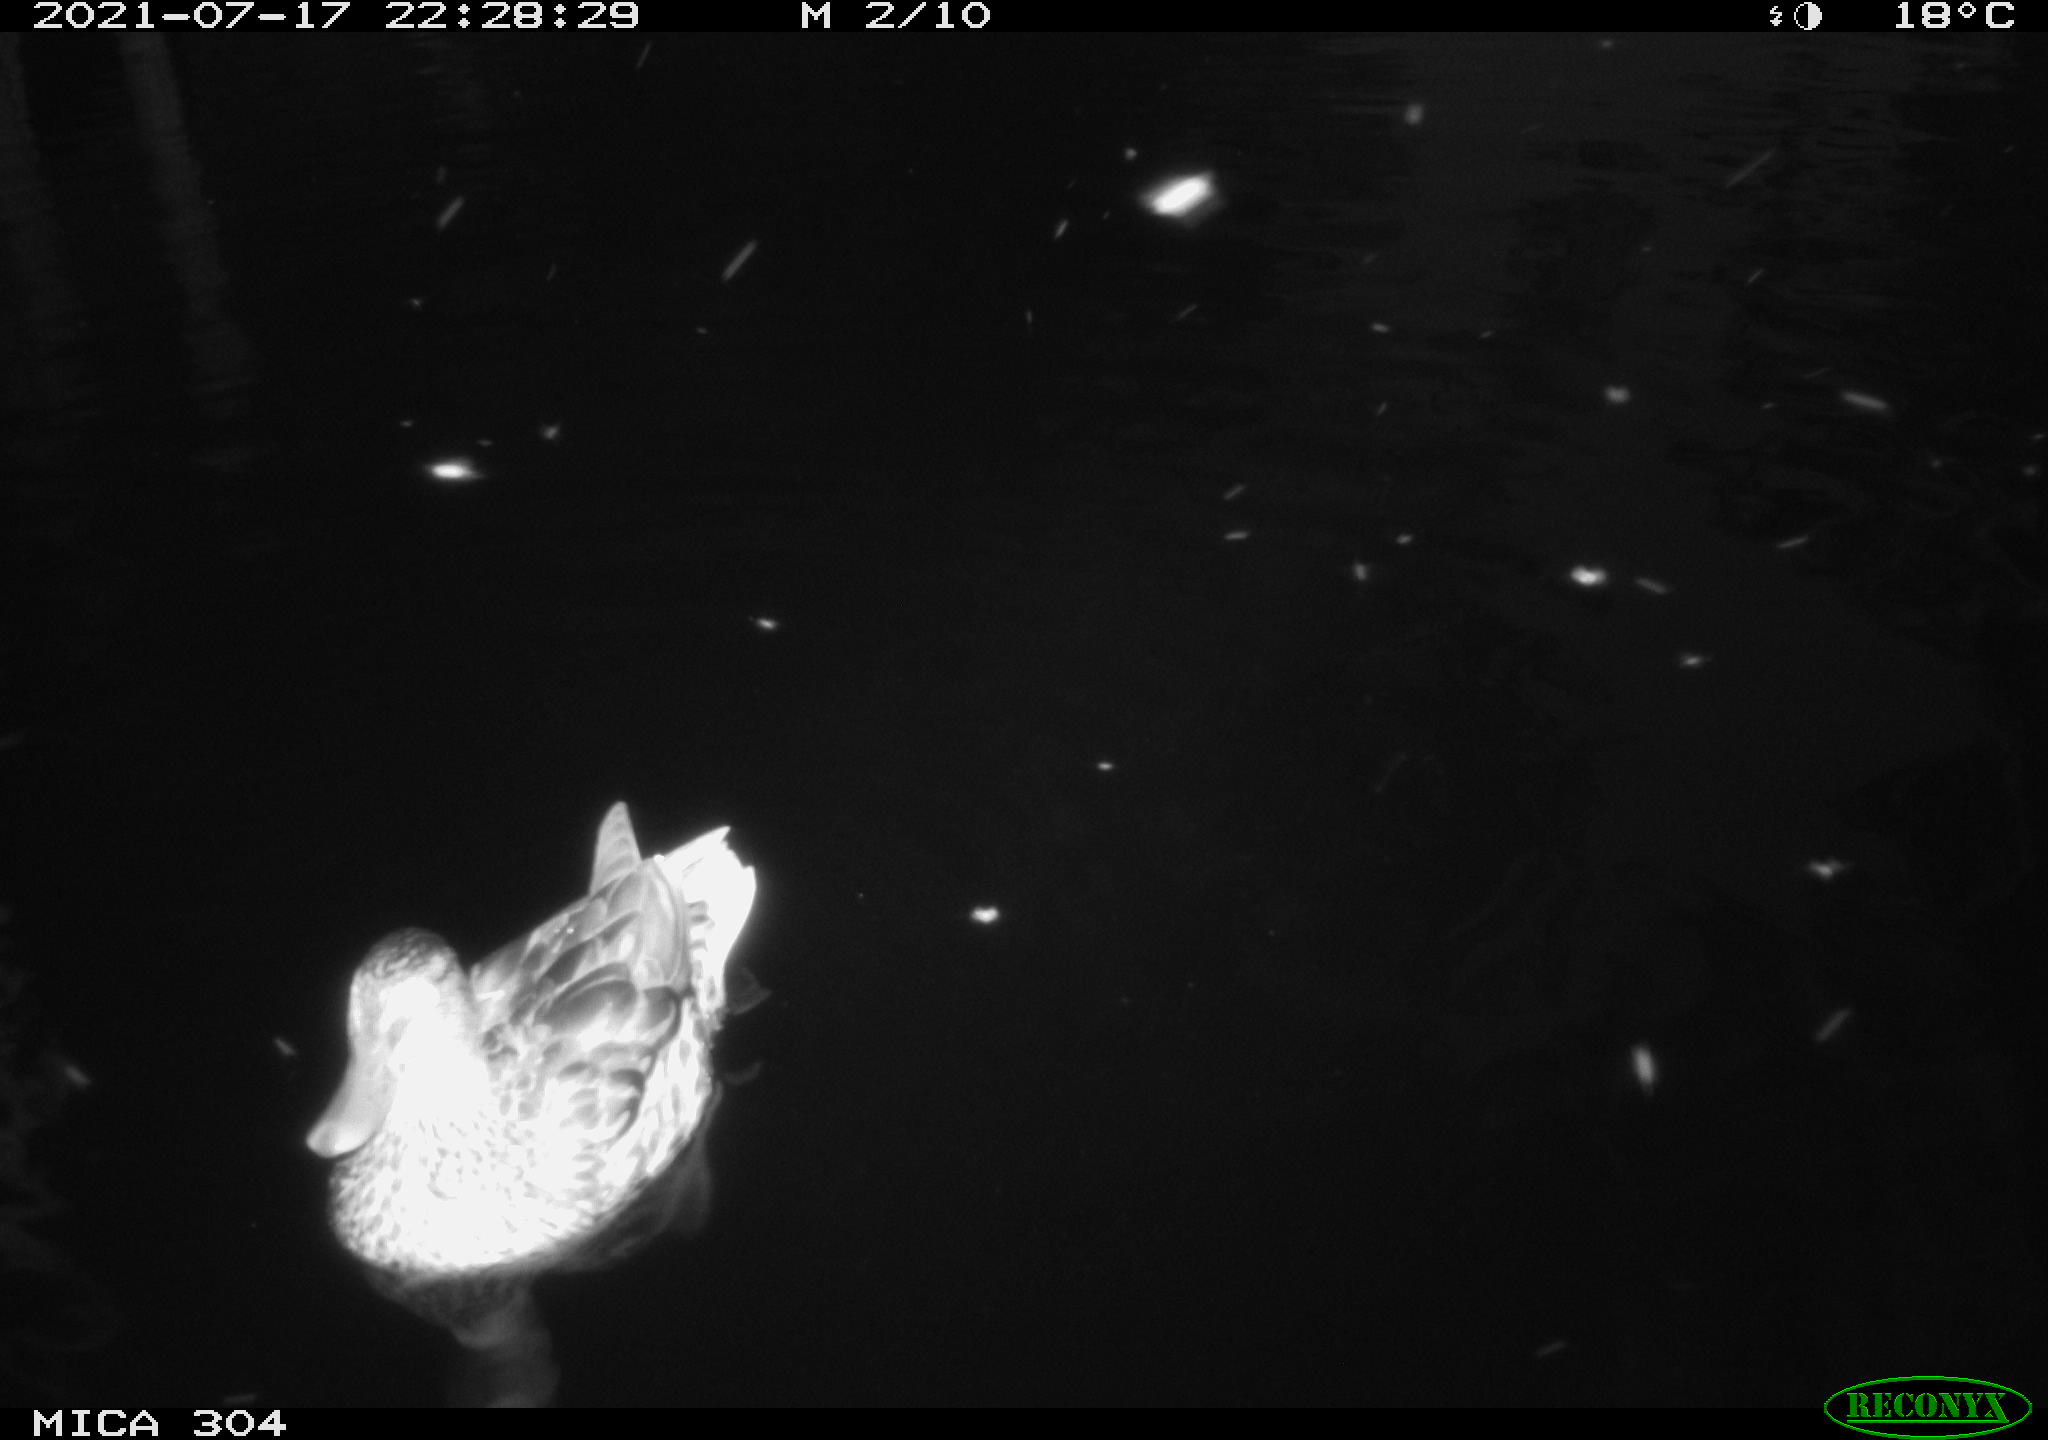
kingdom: Animalia
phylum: Chordata
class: Aves
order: Anseriformes
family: Anatidae
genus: Anas
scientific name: Anas platyrhynchos
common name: Mallard
